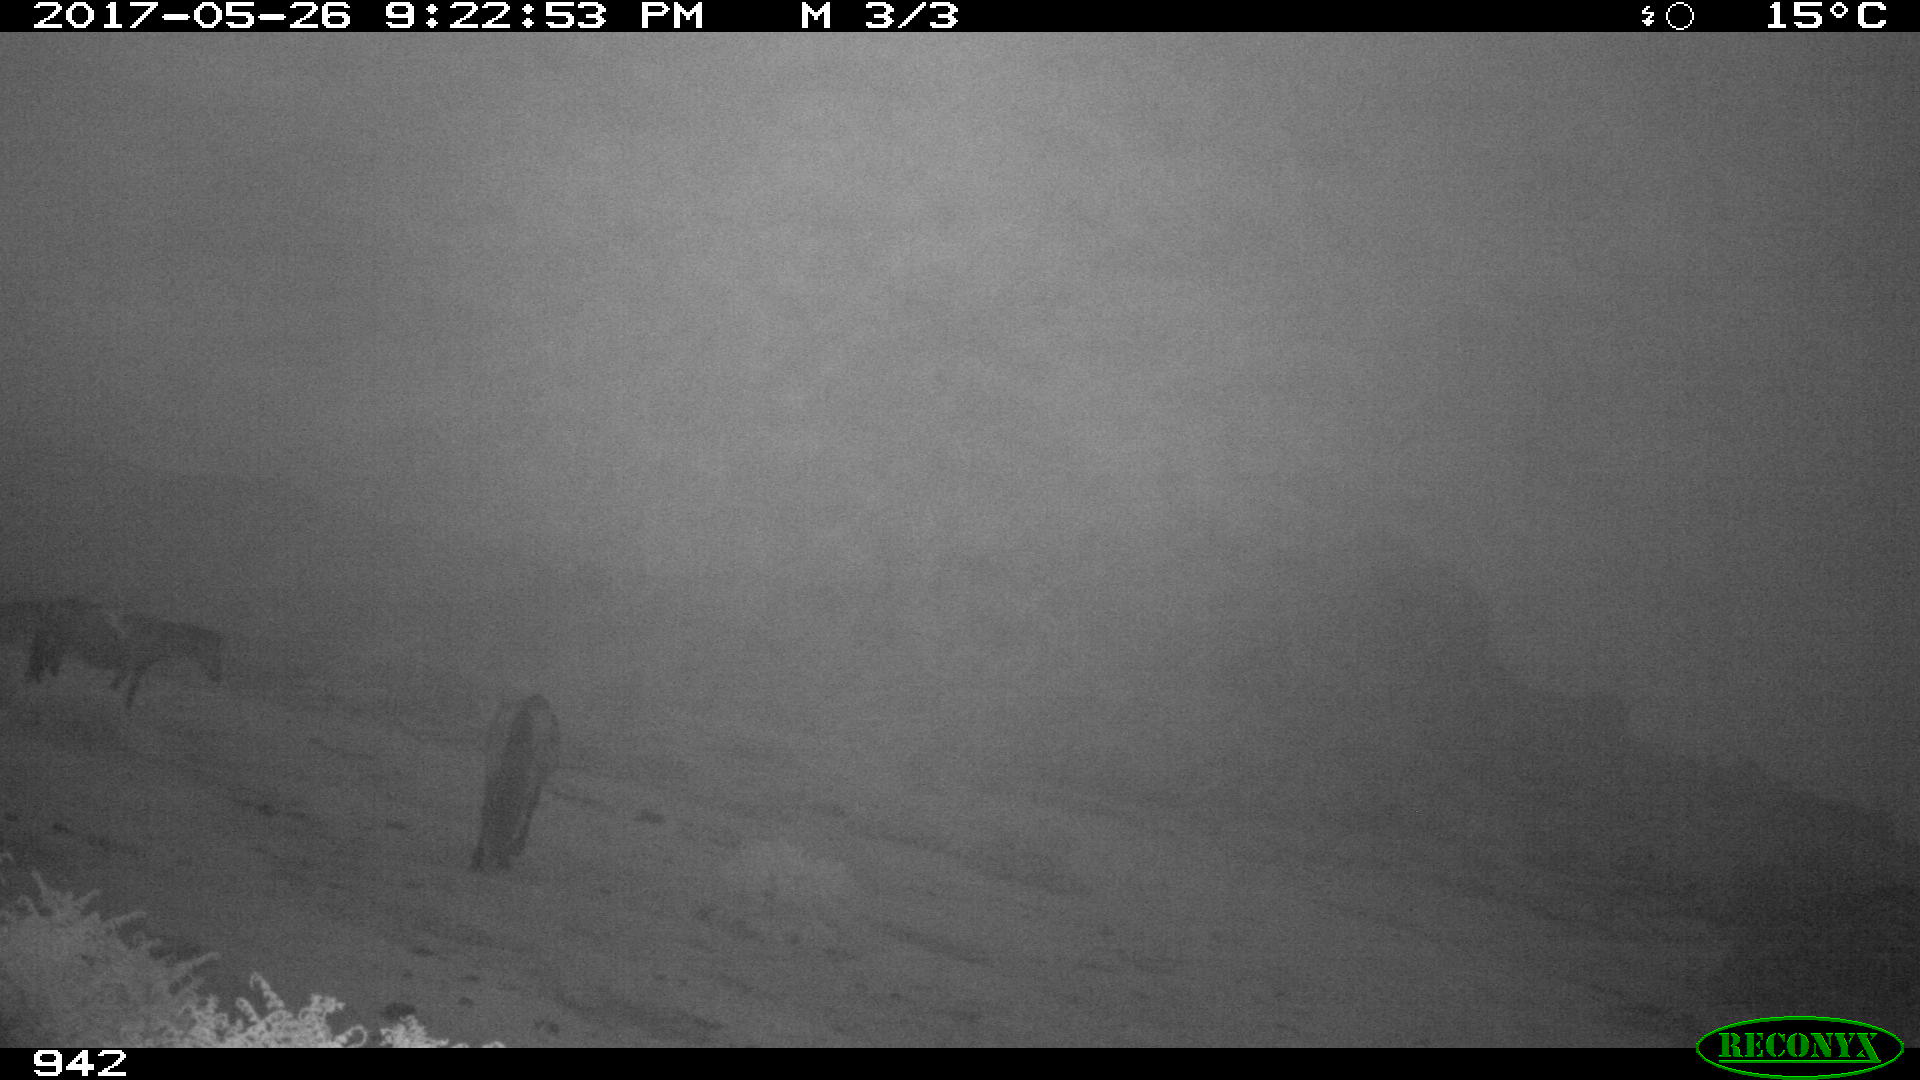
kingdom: Animalia
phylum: Chordata
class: Mammalia
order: Perissodactyla
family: Equidae
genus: Equus
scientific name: Equus caballus
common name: Horse
